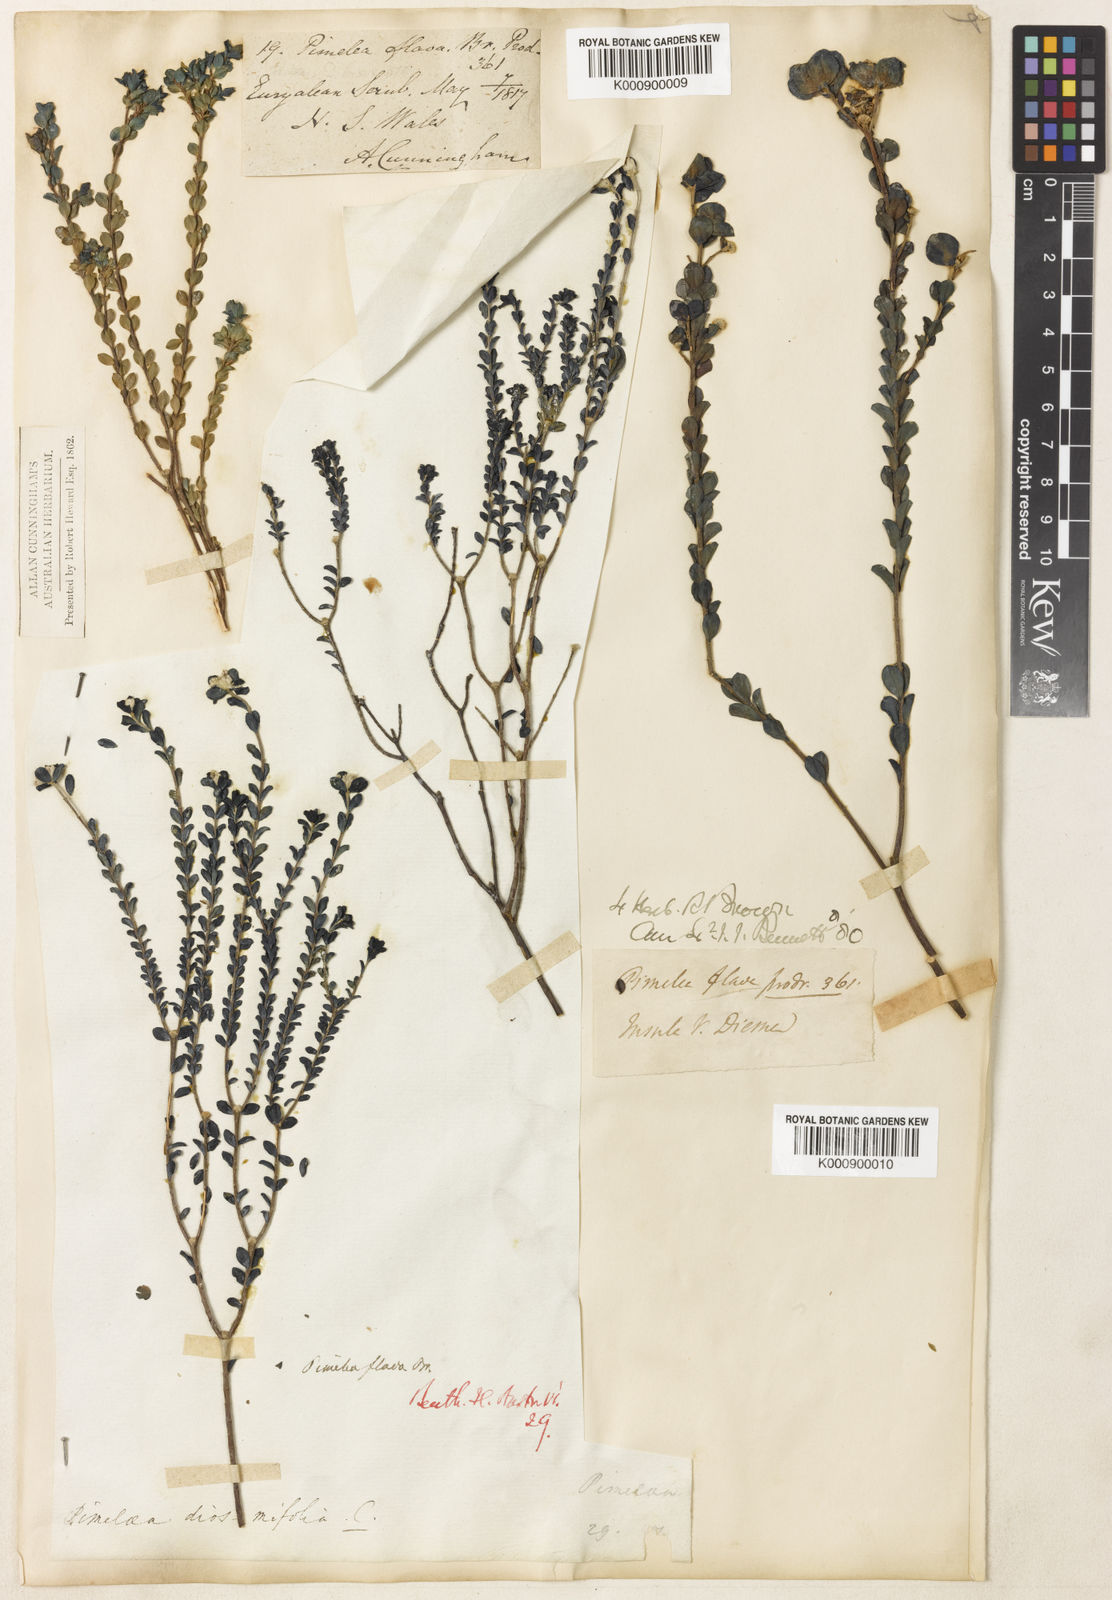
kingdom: Plantae
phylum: Tracheophyta
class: Magnoliopsida
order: Malvales
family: Thymelaeaceae
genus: Pimelea
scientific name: Pimelea flava
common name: Yellow riceflower
